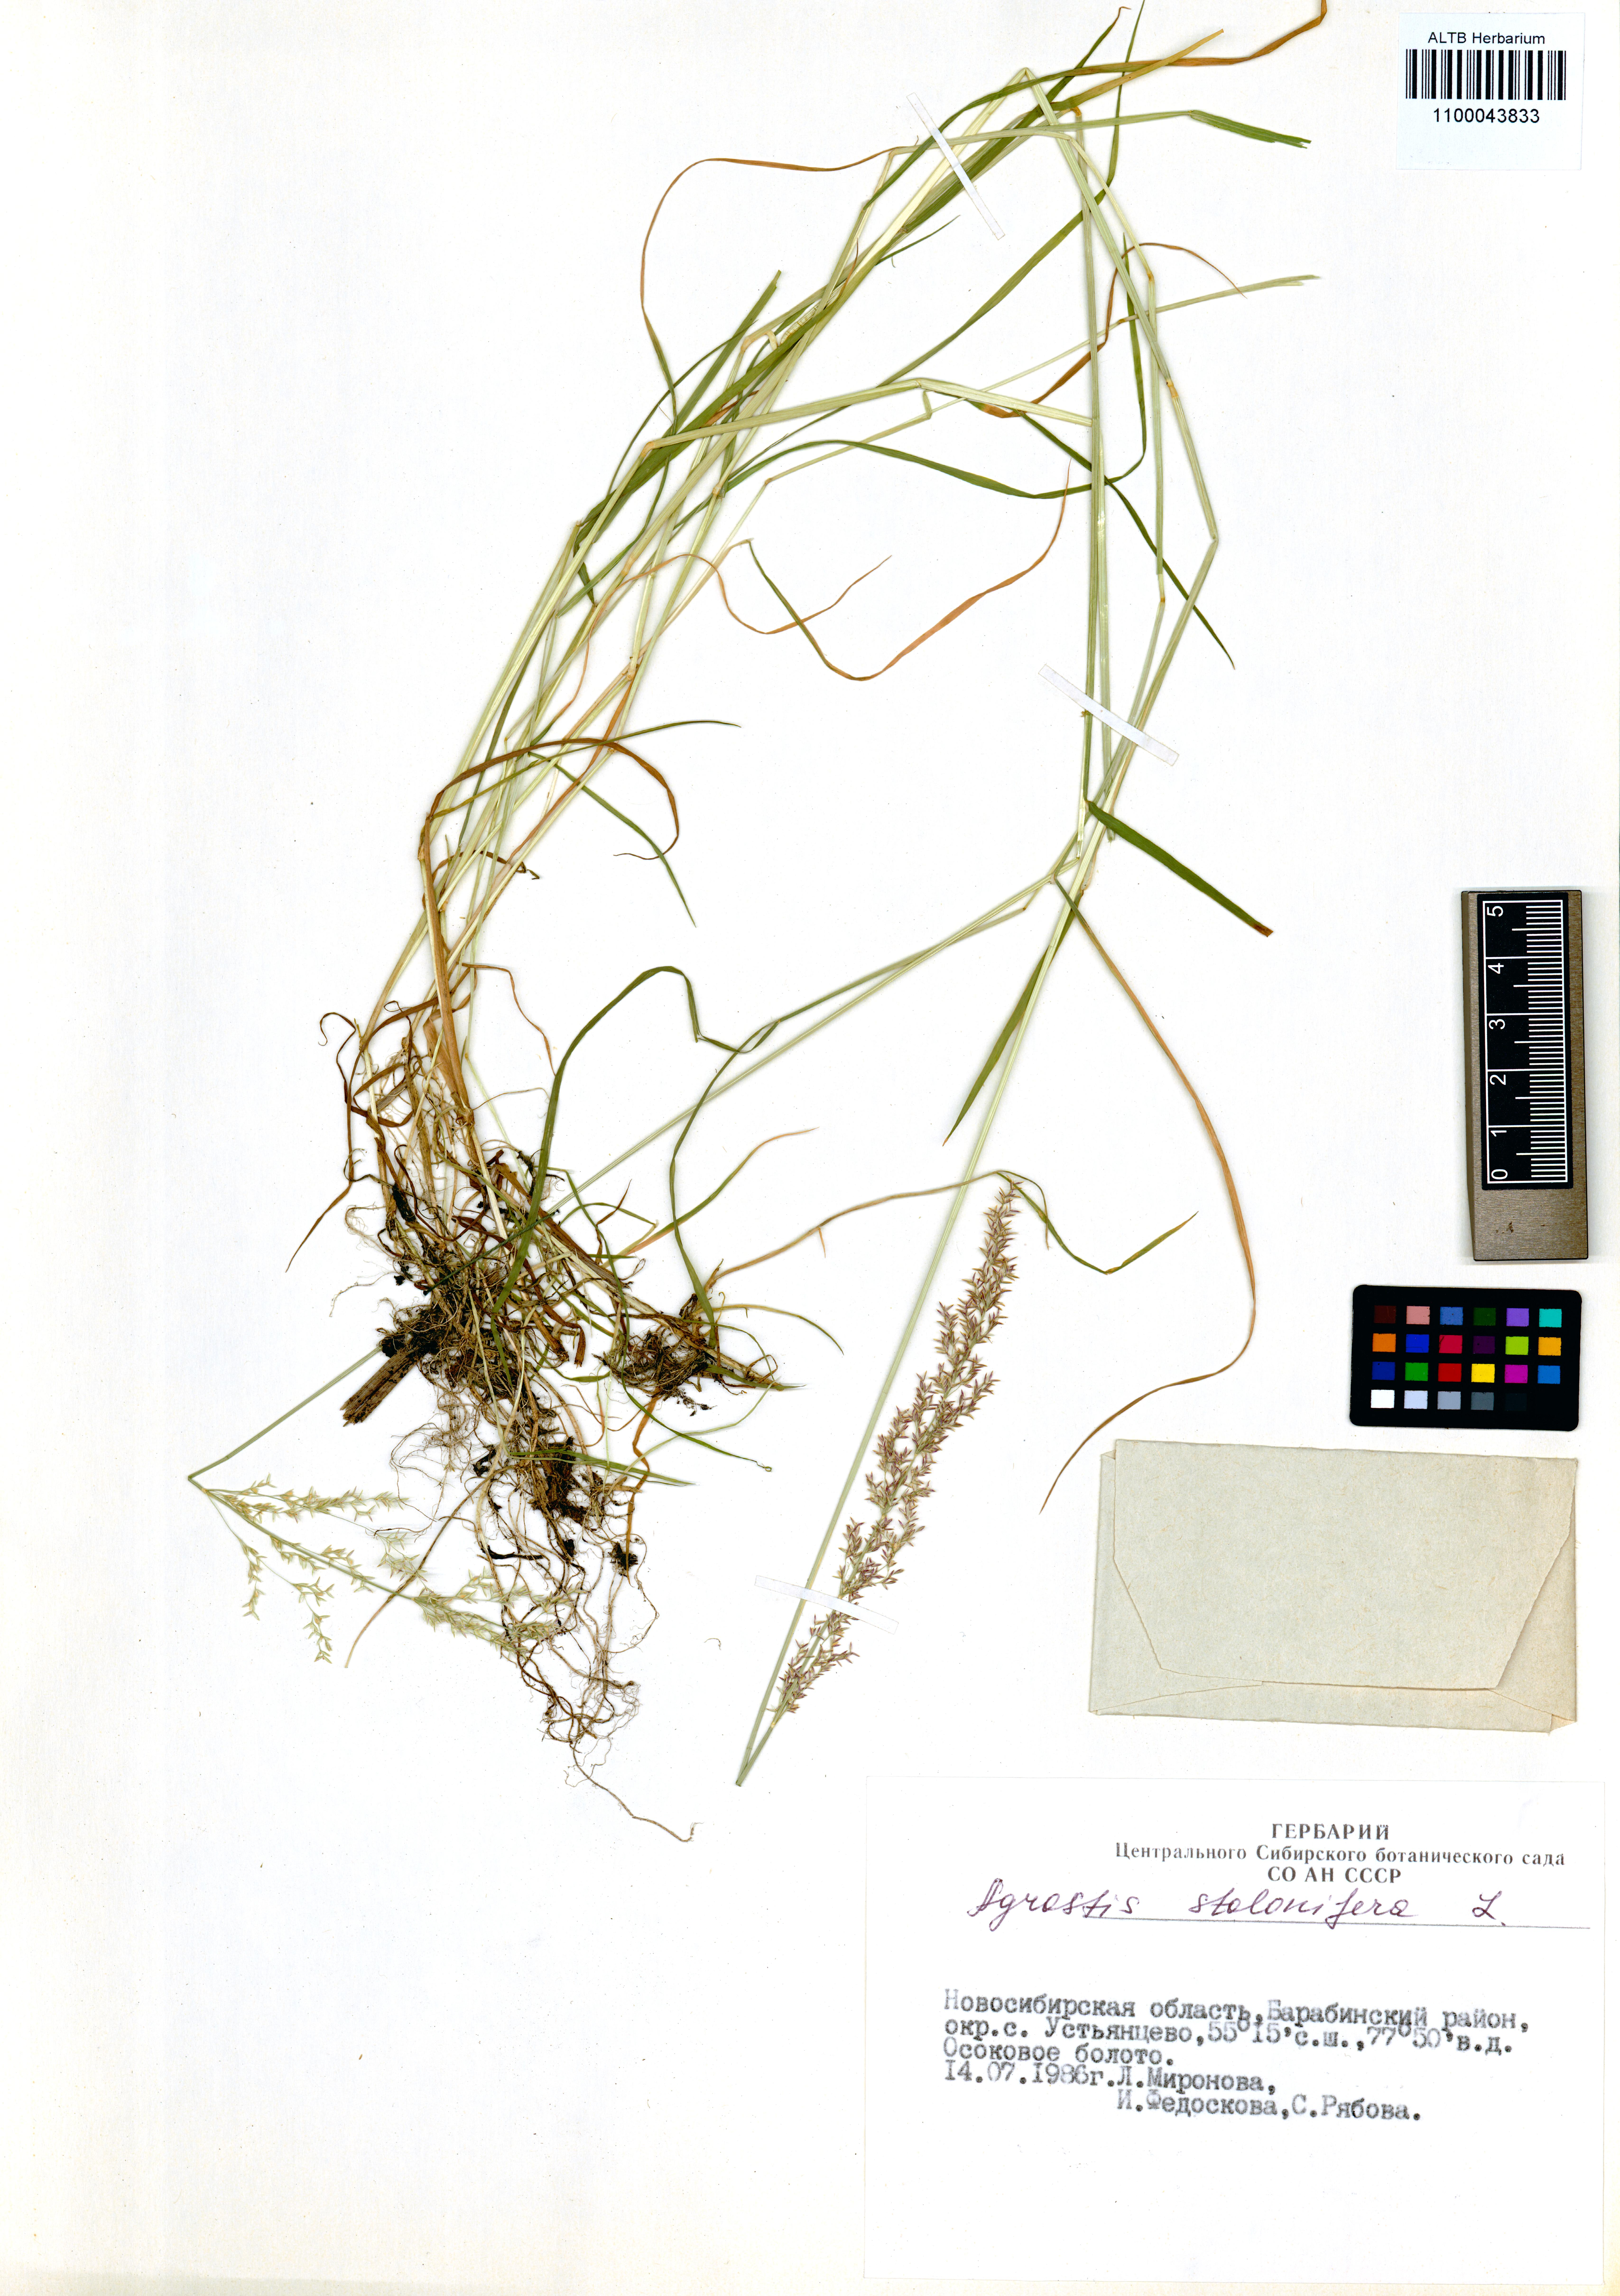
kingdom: Plantae
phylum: Tracheophyta
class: Liliopsida
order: Poales
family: Poaceae
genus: Agrostis
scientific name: Agrostis stolonifera
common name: Creeping bentgrass
